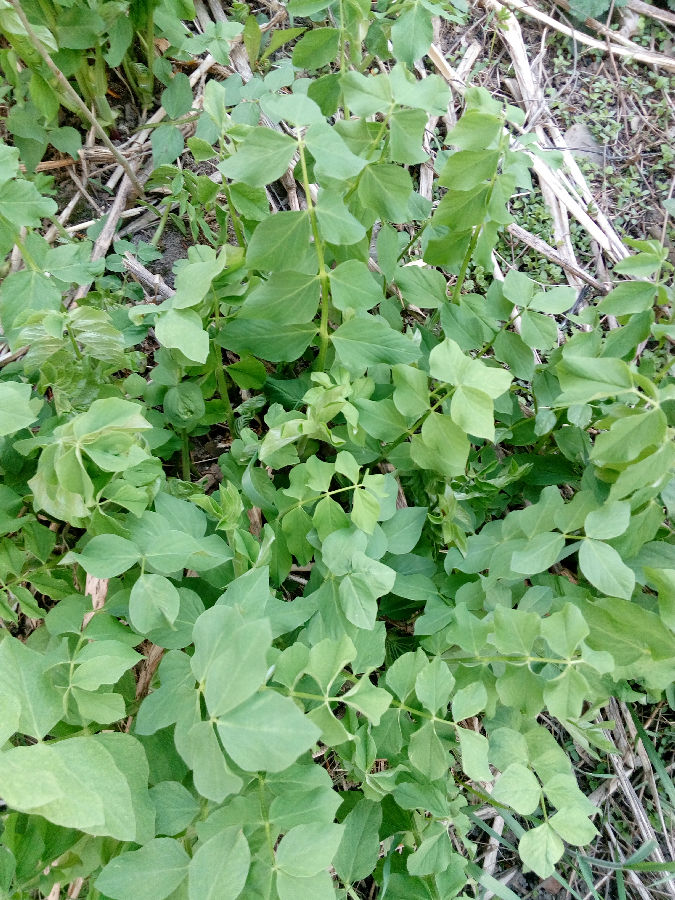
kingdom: Plantae
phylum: Tracheophyta
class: Magnoliopsida
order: Fabales
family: Fabaceae
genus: Galega
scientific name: Galega orientalis
